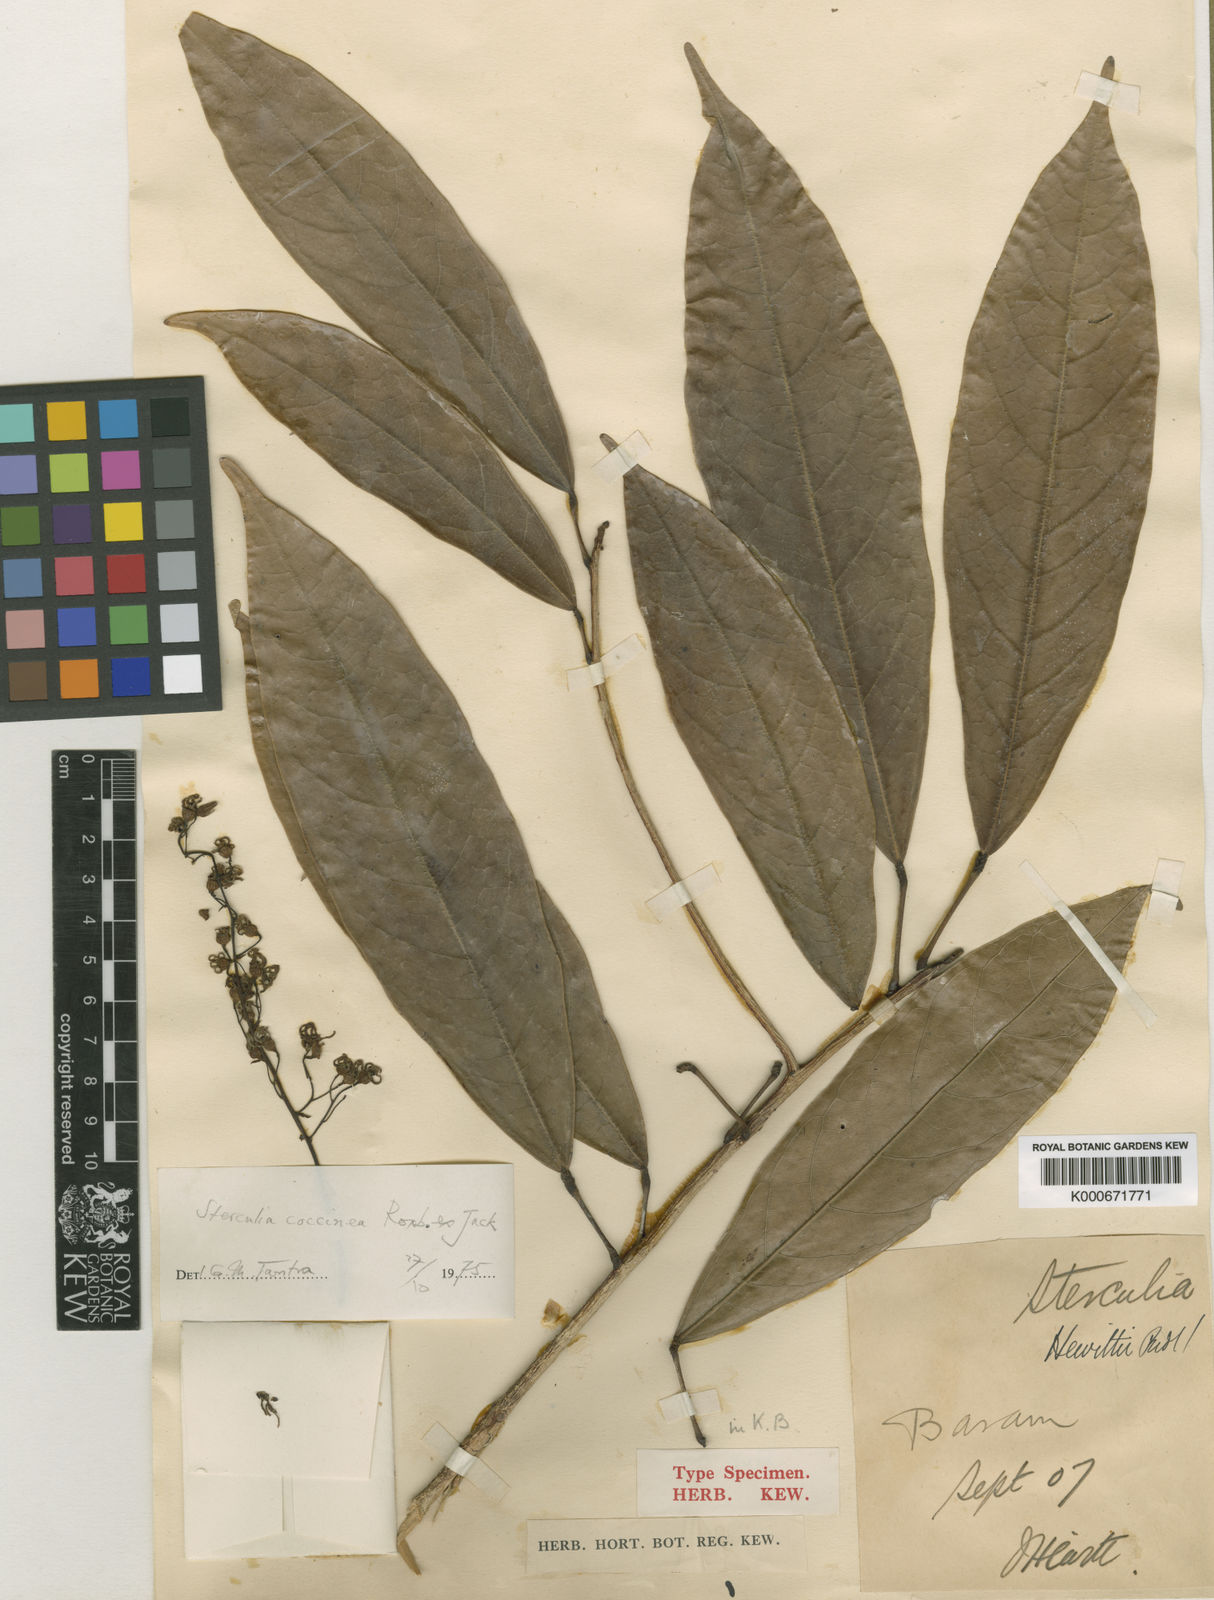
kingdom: Plantae
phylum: Tracheophyta
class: Magnoliopsida
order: Malvales
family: Malvaceae
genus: Sterculia
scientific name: Sterculia
